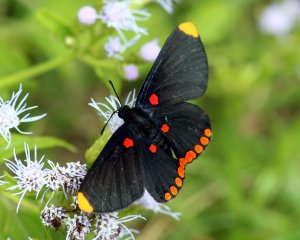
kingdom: Animalia
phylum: Arthropoda
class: Insecta
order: Lepidoptera
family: Lycaenidae
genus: Melanis
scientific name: Melanis pixe
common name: Red-bordered Pixie
